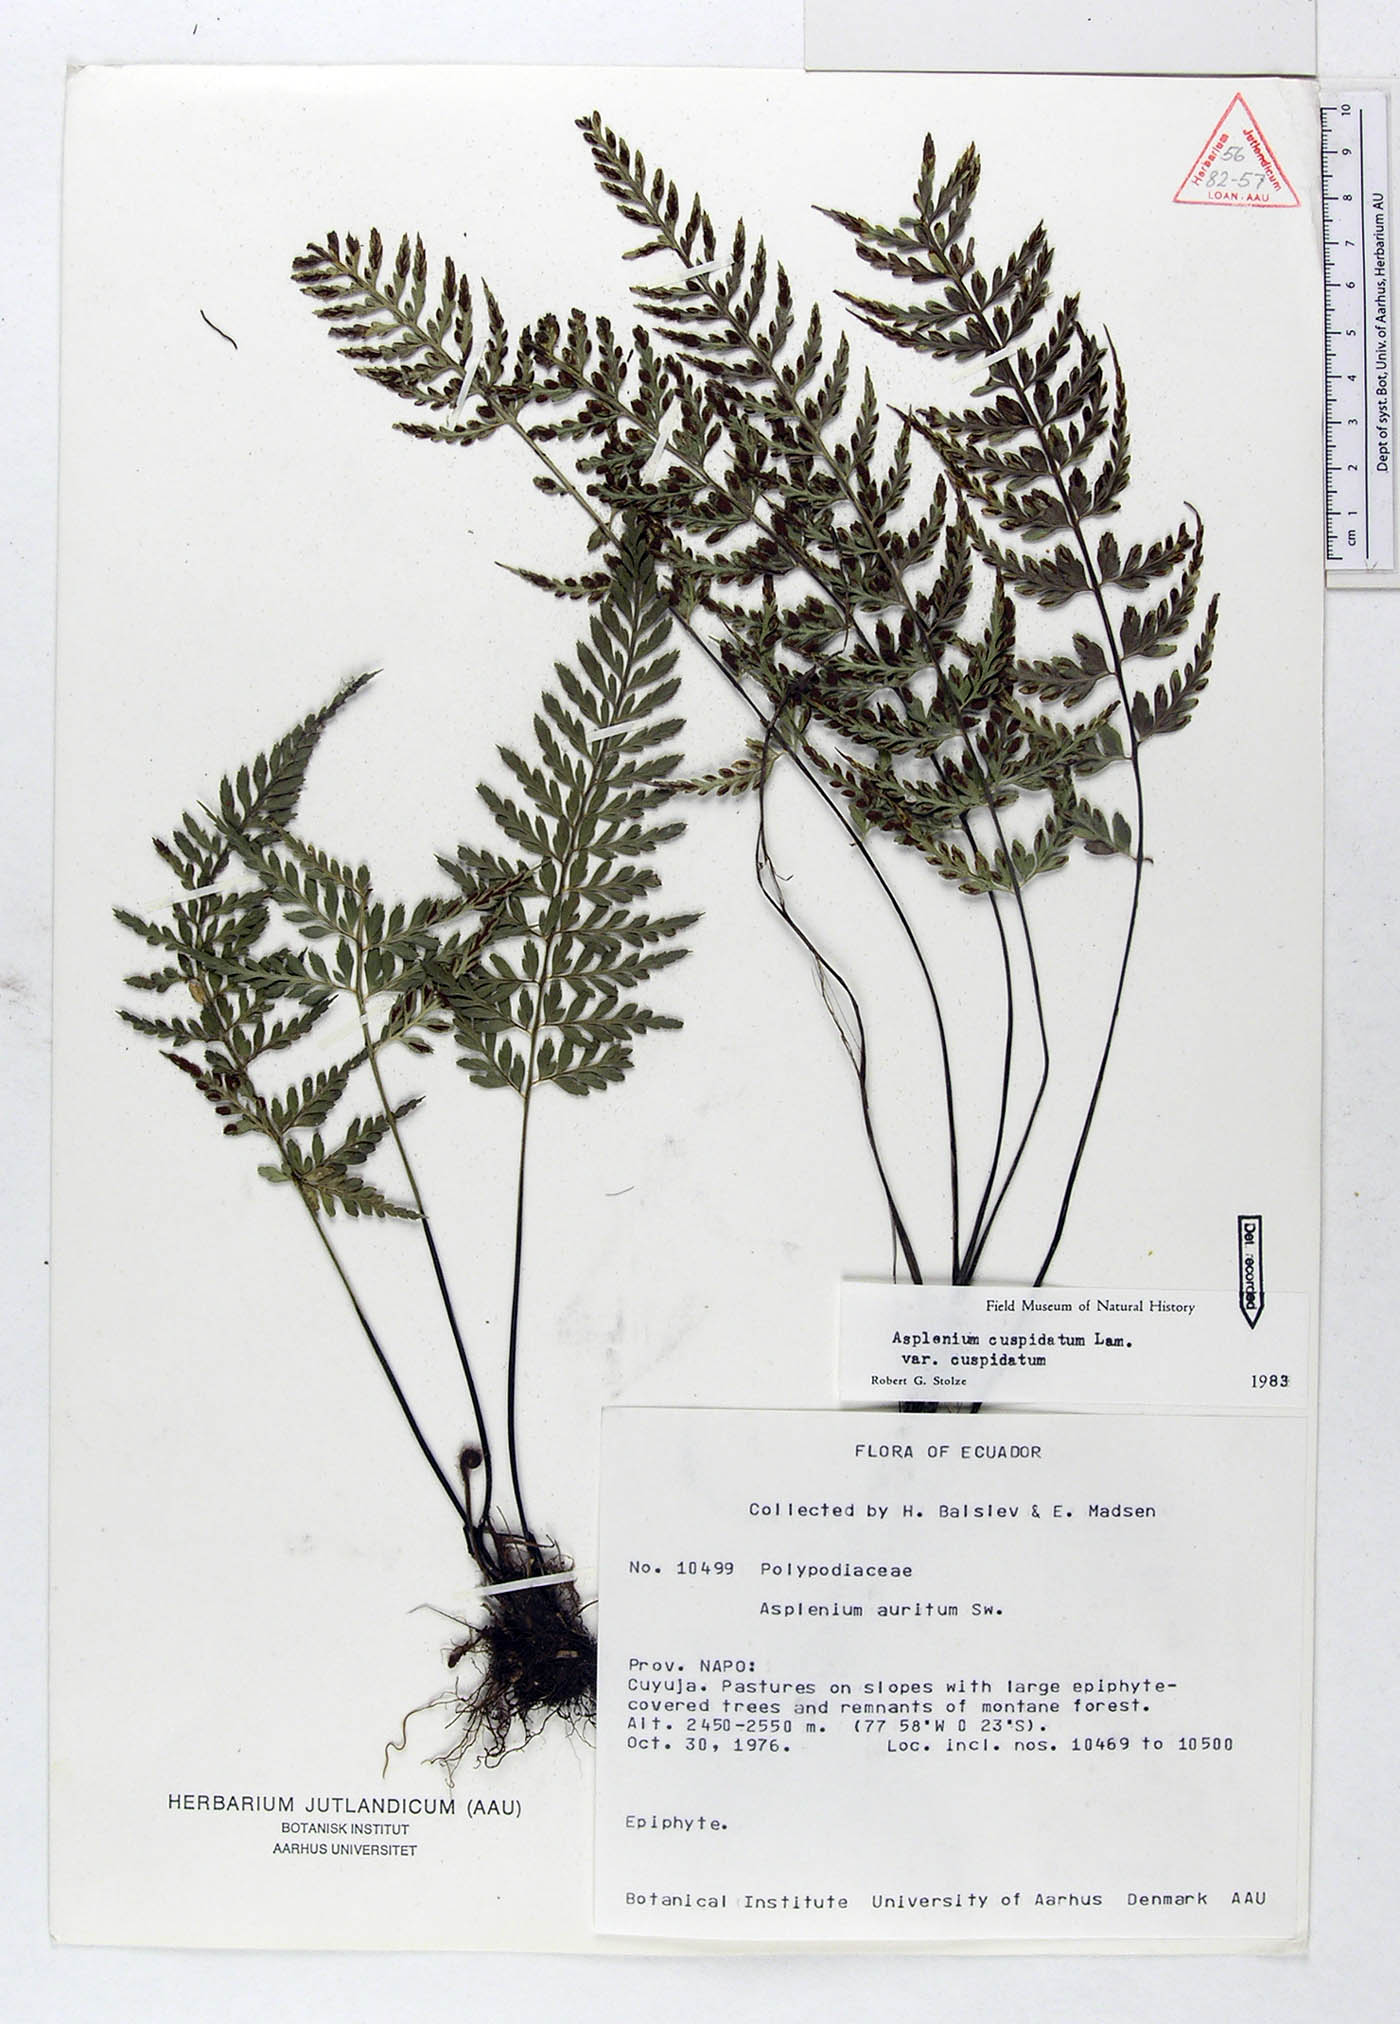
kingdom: Plantae
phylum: Tracheophyta
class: Polypodiopsida
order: Polypodiales
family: Aspleniaceae
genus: Asplenium
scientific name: Asplenium cuspidatum
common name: Eared spleenwort
